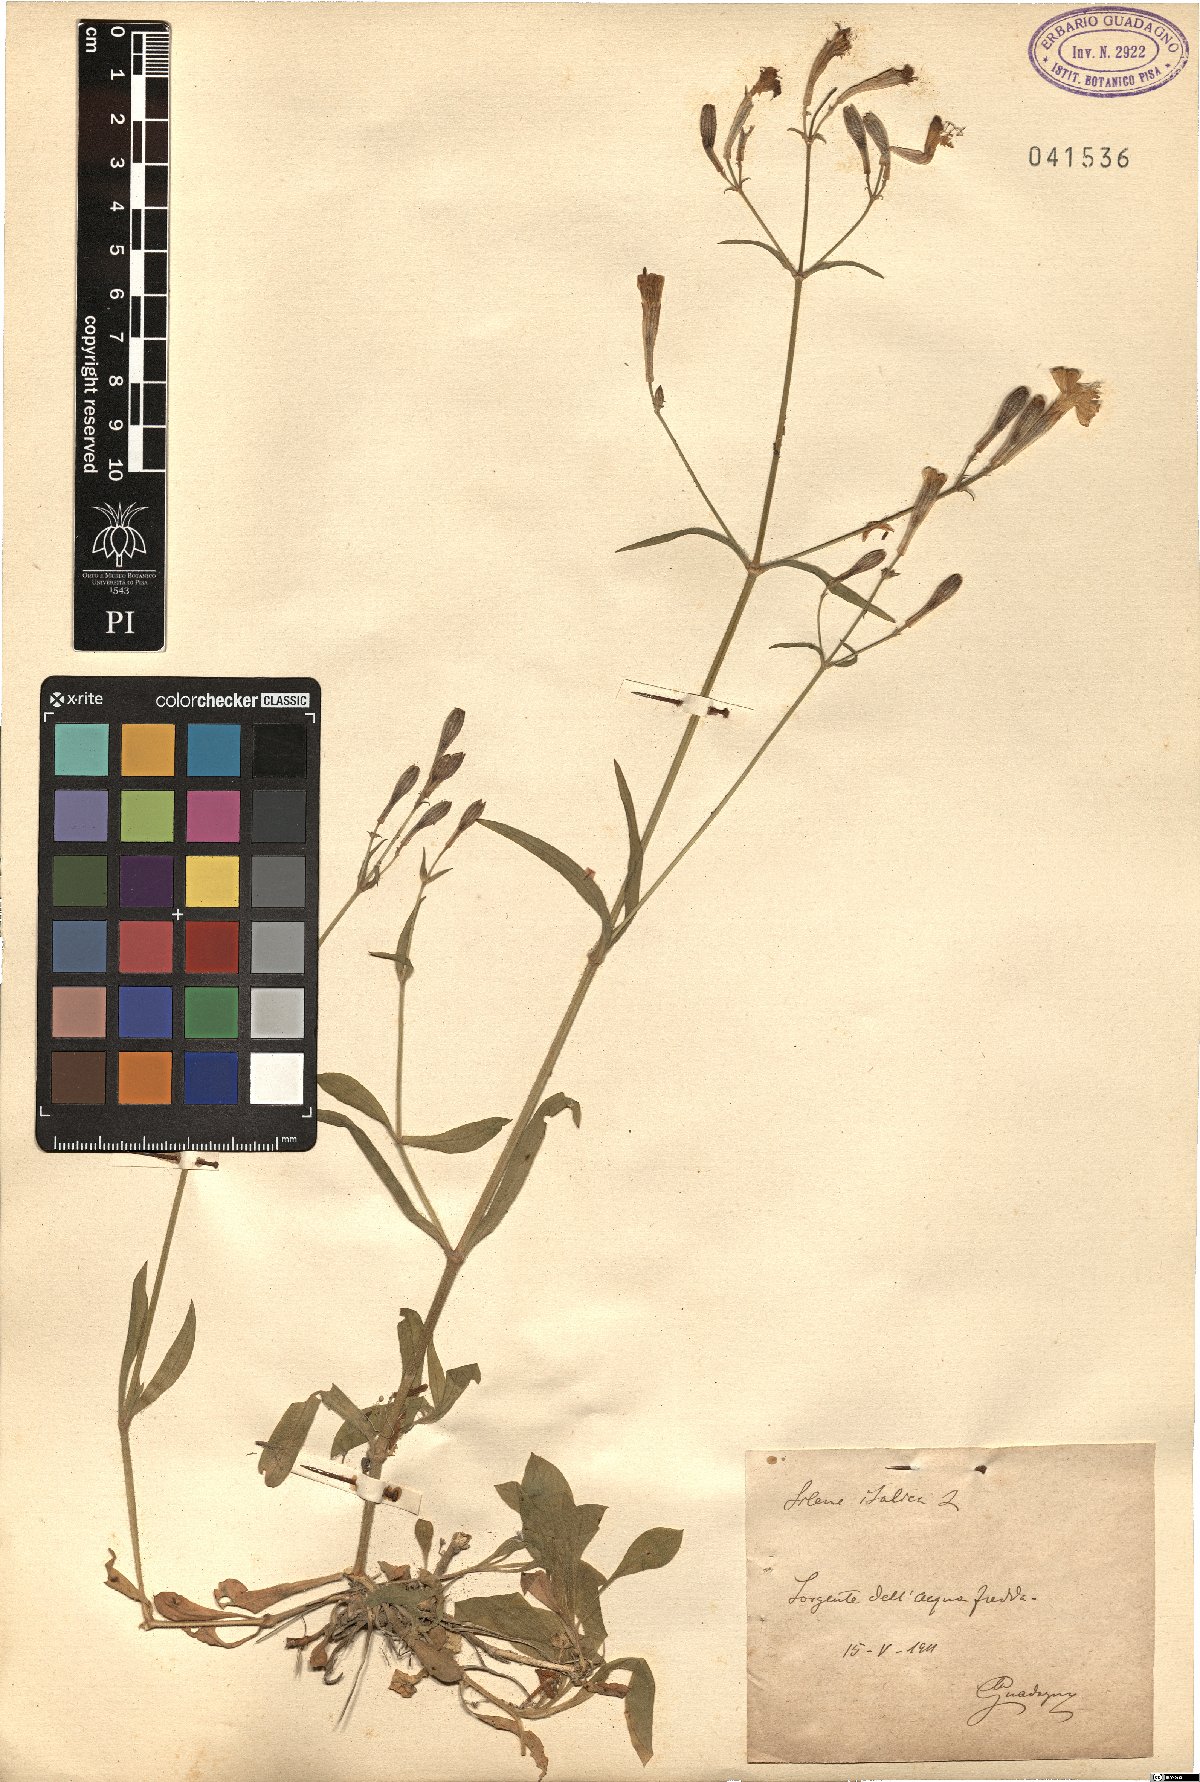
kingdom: Plantae
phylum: Tracheophyta
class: Magnoliopsida
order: Caryophyllales
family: Caryophyllaceae
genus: Silene
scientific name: Silene italica
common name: Italian catchfly
